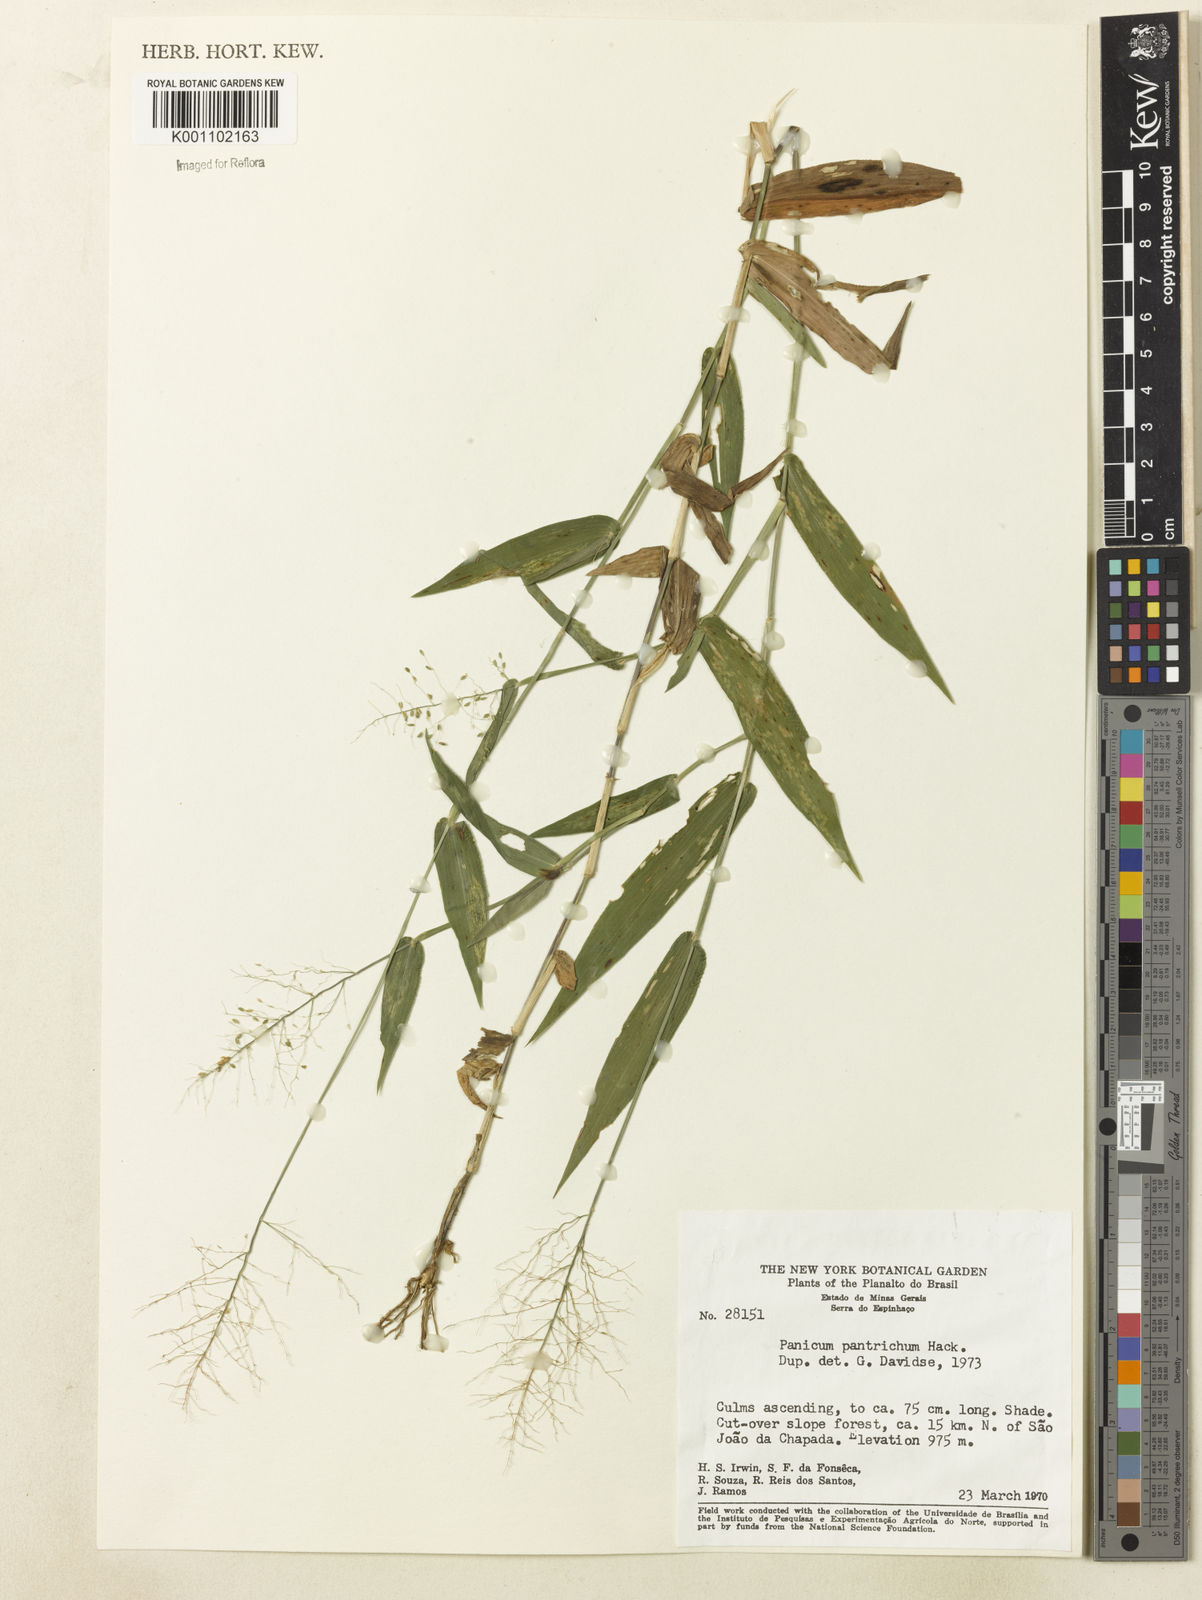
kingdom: Plantae
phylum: Tracheophyta
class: Liliopsida
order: Poales
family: Poaceae
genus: Dichanthelium
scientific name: Dichanthelium sciurotoides
